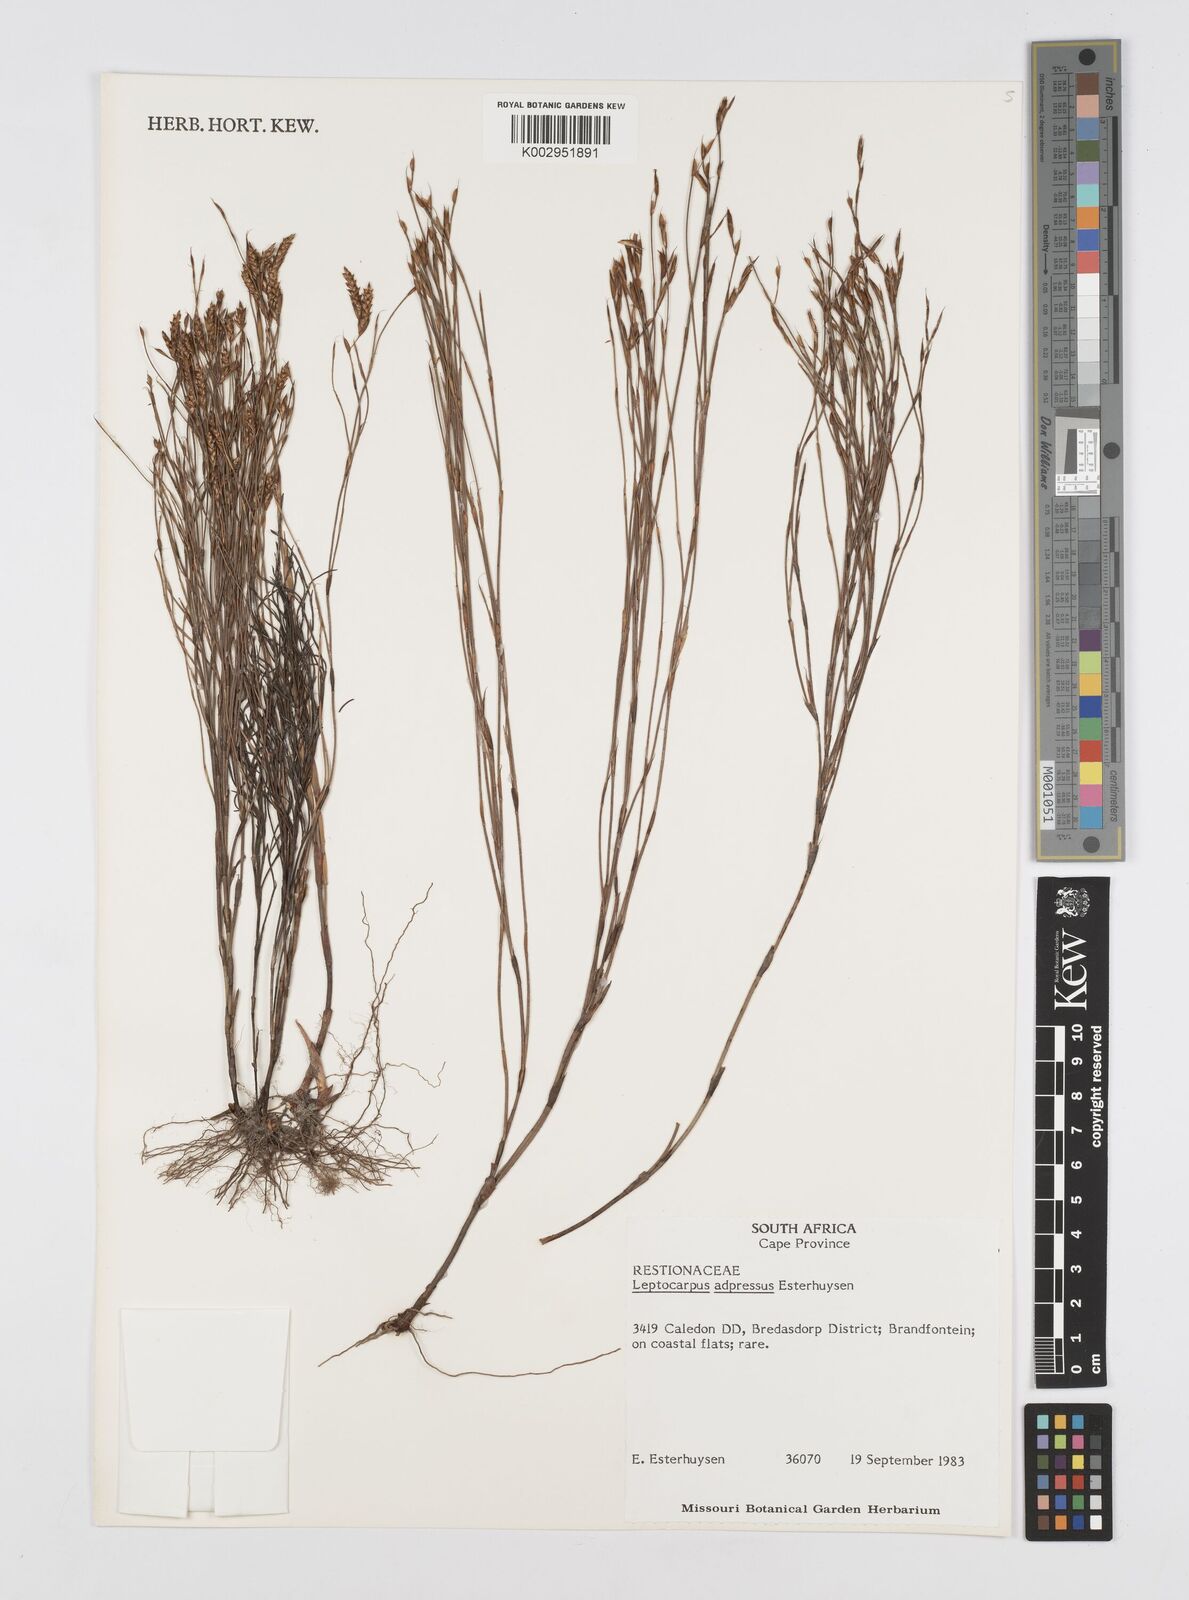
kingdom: Plantae
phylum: Tracheophyta
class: Liliopsida
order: Poales
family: Restionaceae
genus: Restio
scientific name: Restio adpressus
